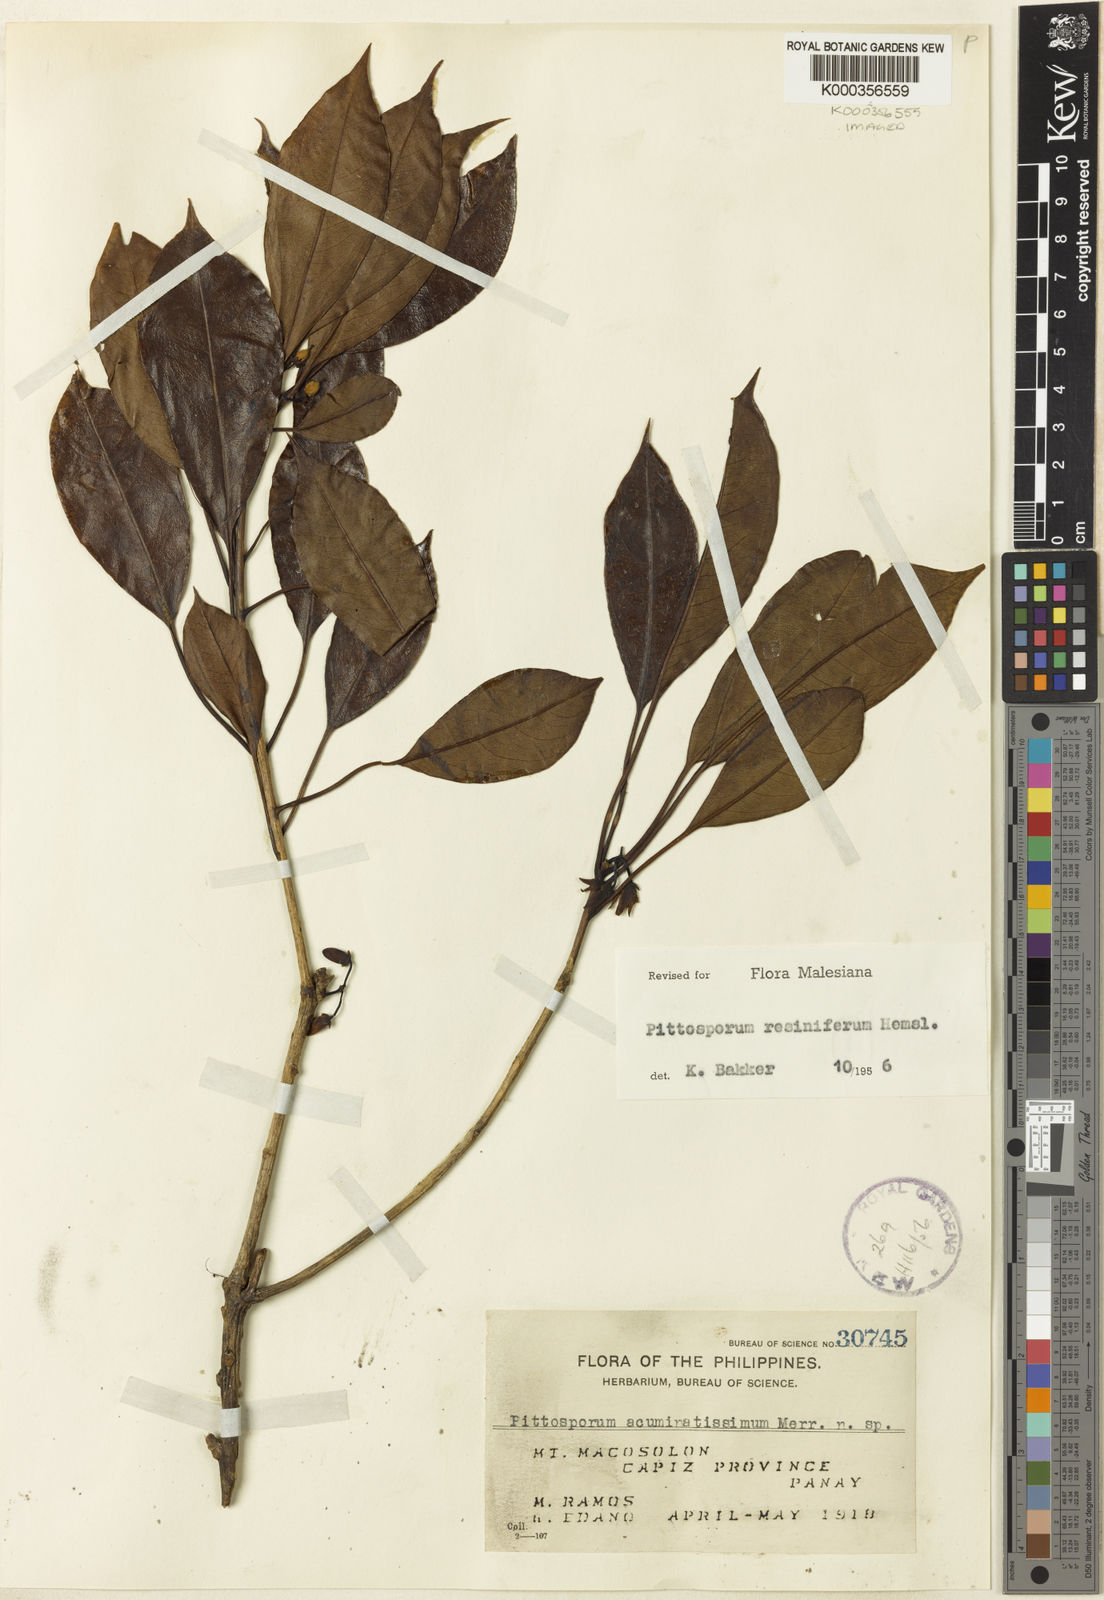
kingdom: Plantae
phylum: Tracheophyta
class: Magnoliopsida
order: Apiales
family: Pittosporaceae
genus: Pittosporum
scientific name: Pittosporum resiniferum
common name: Petroleum-nut
